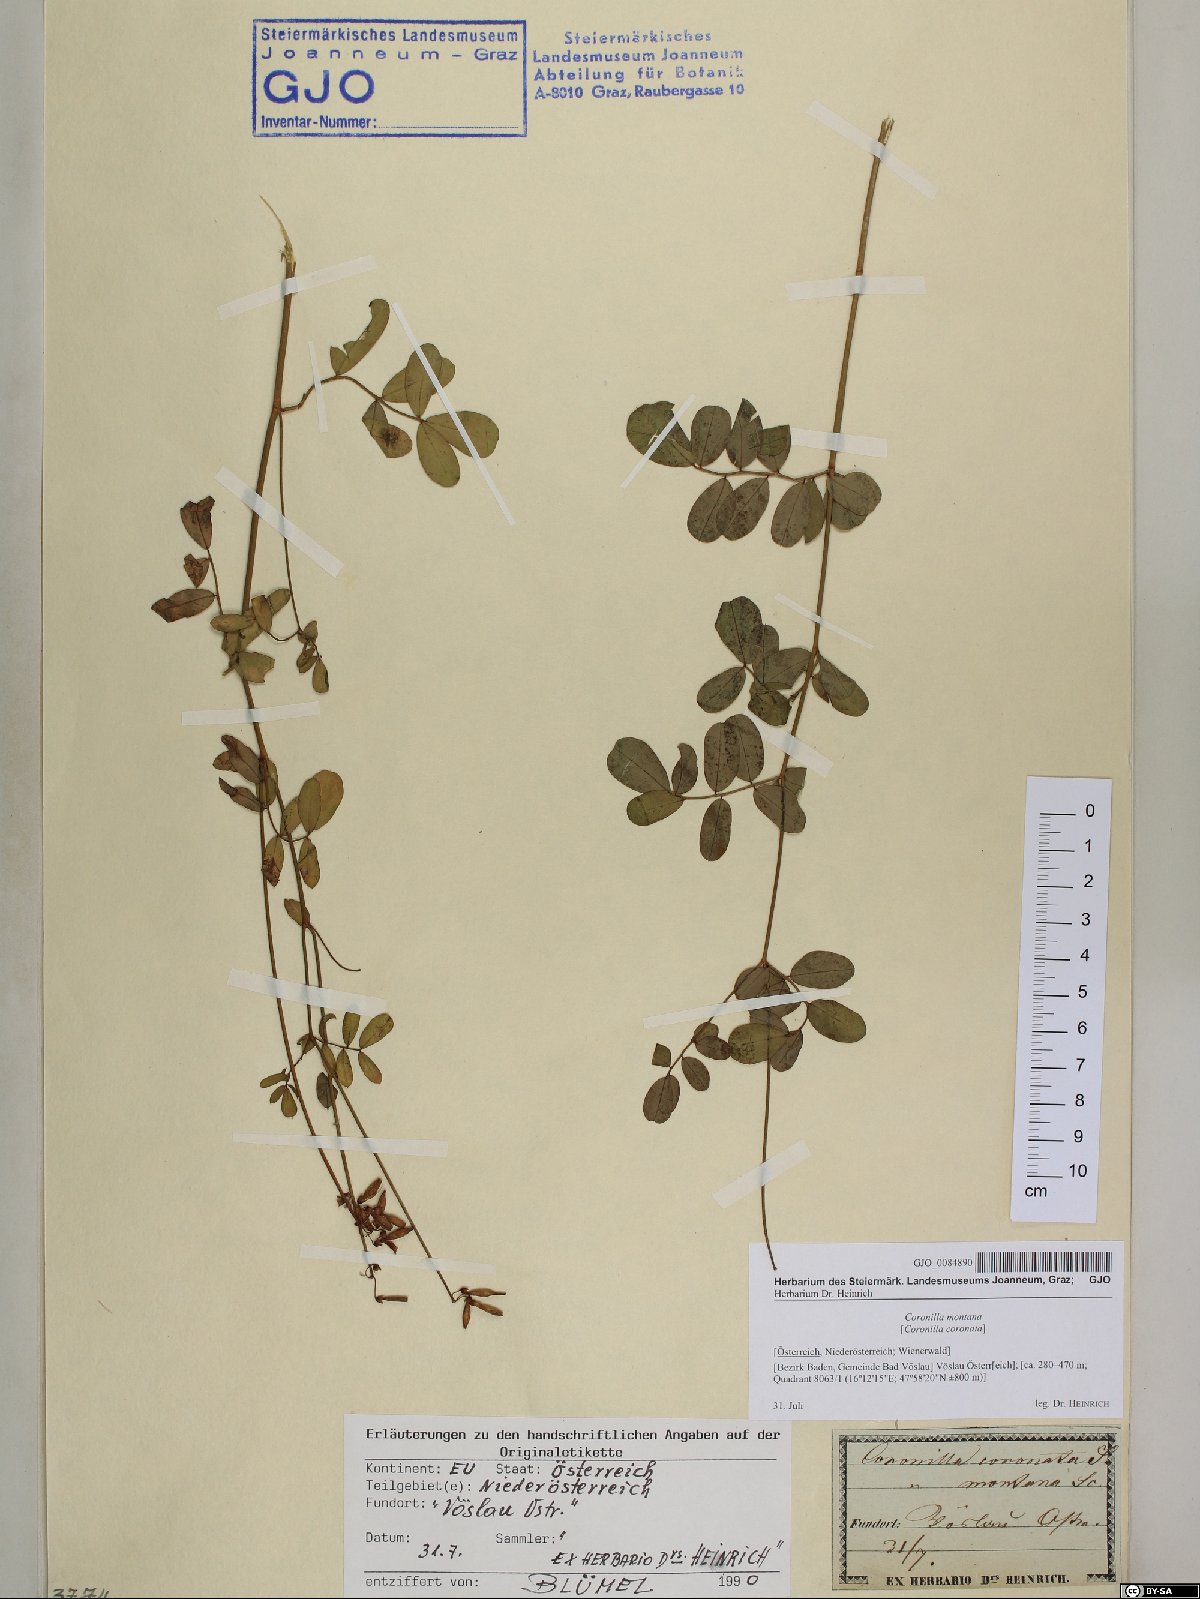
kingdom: Plantae
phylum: Tracheophyta
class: Magnoliopsida
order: Fabales
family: Fabaceae
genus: Coronilla
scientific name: Coronilla coronata
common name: Scorpion-vetch
